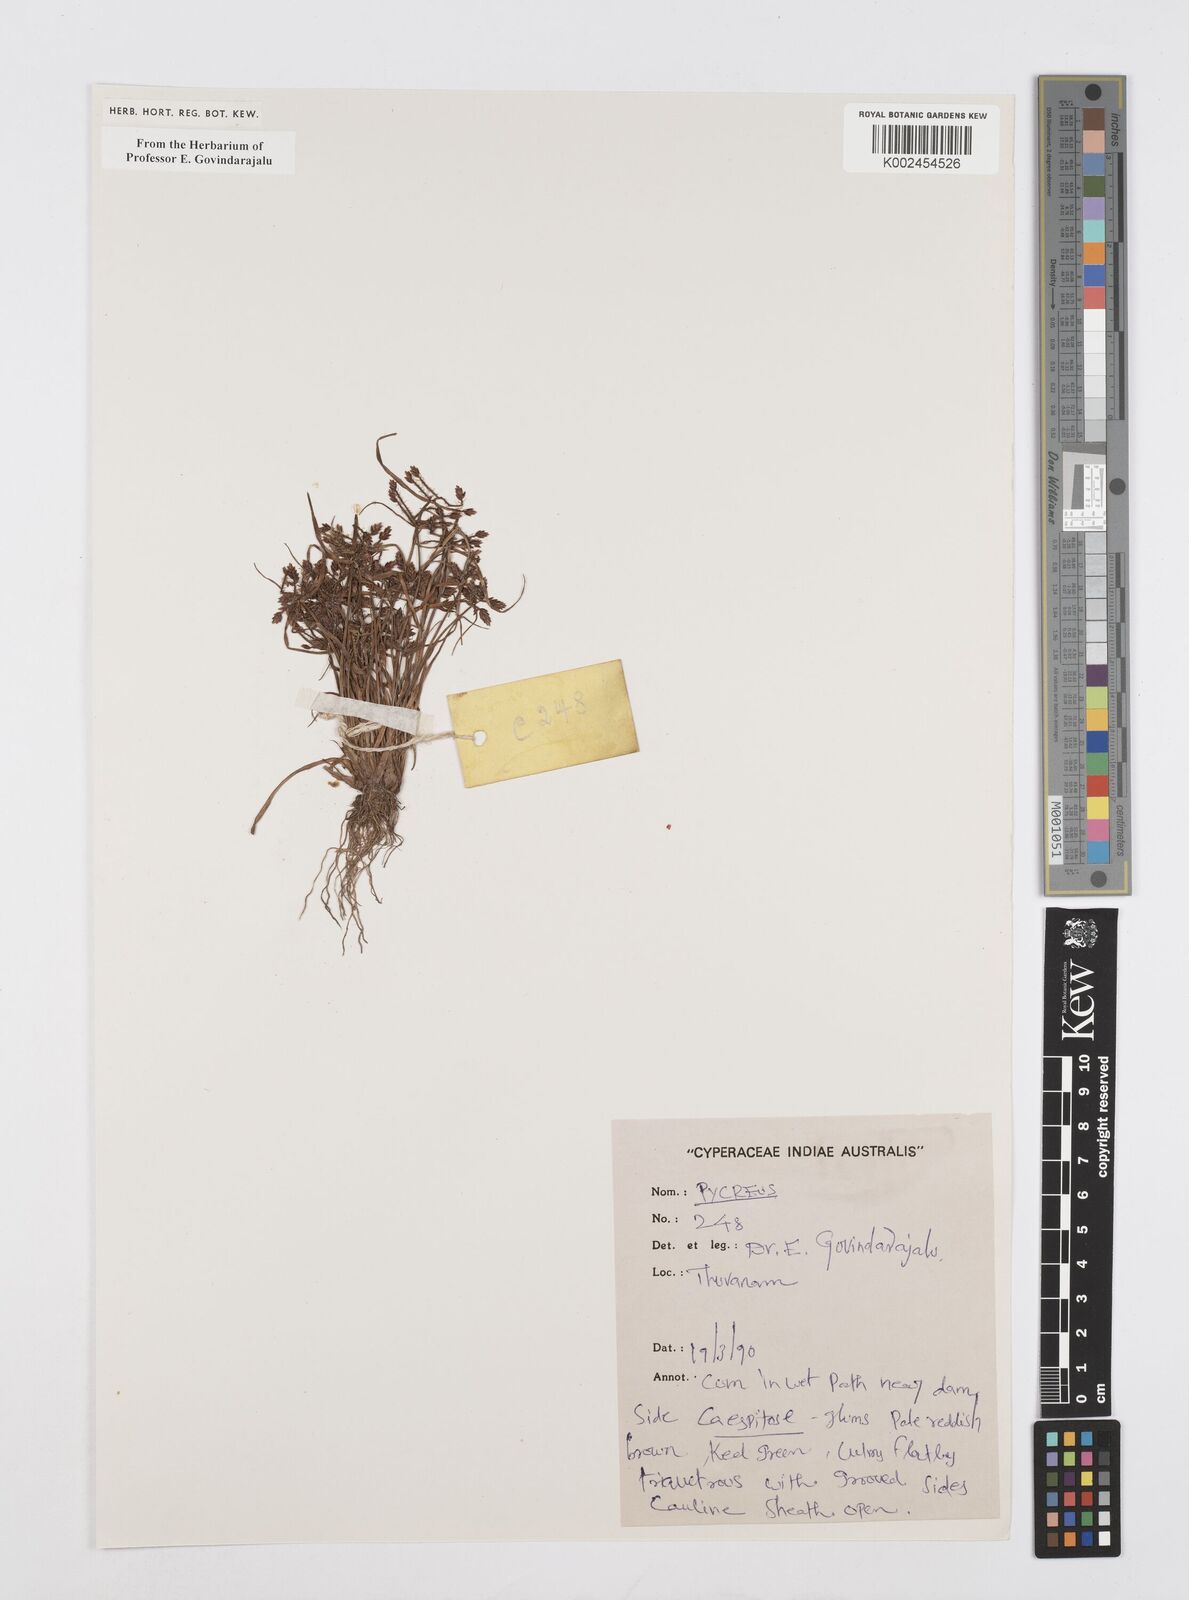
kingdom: Plantae
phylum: Tracheophyta
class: Liliopsida
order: Poales
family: Cyperaceae
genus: Cyperus
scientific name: Cyperus
